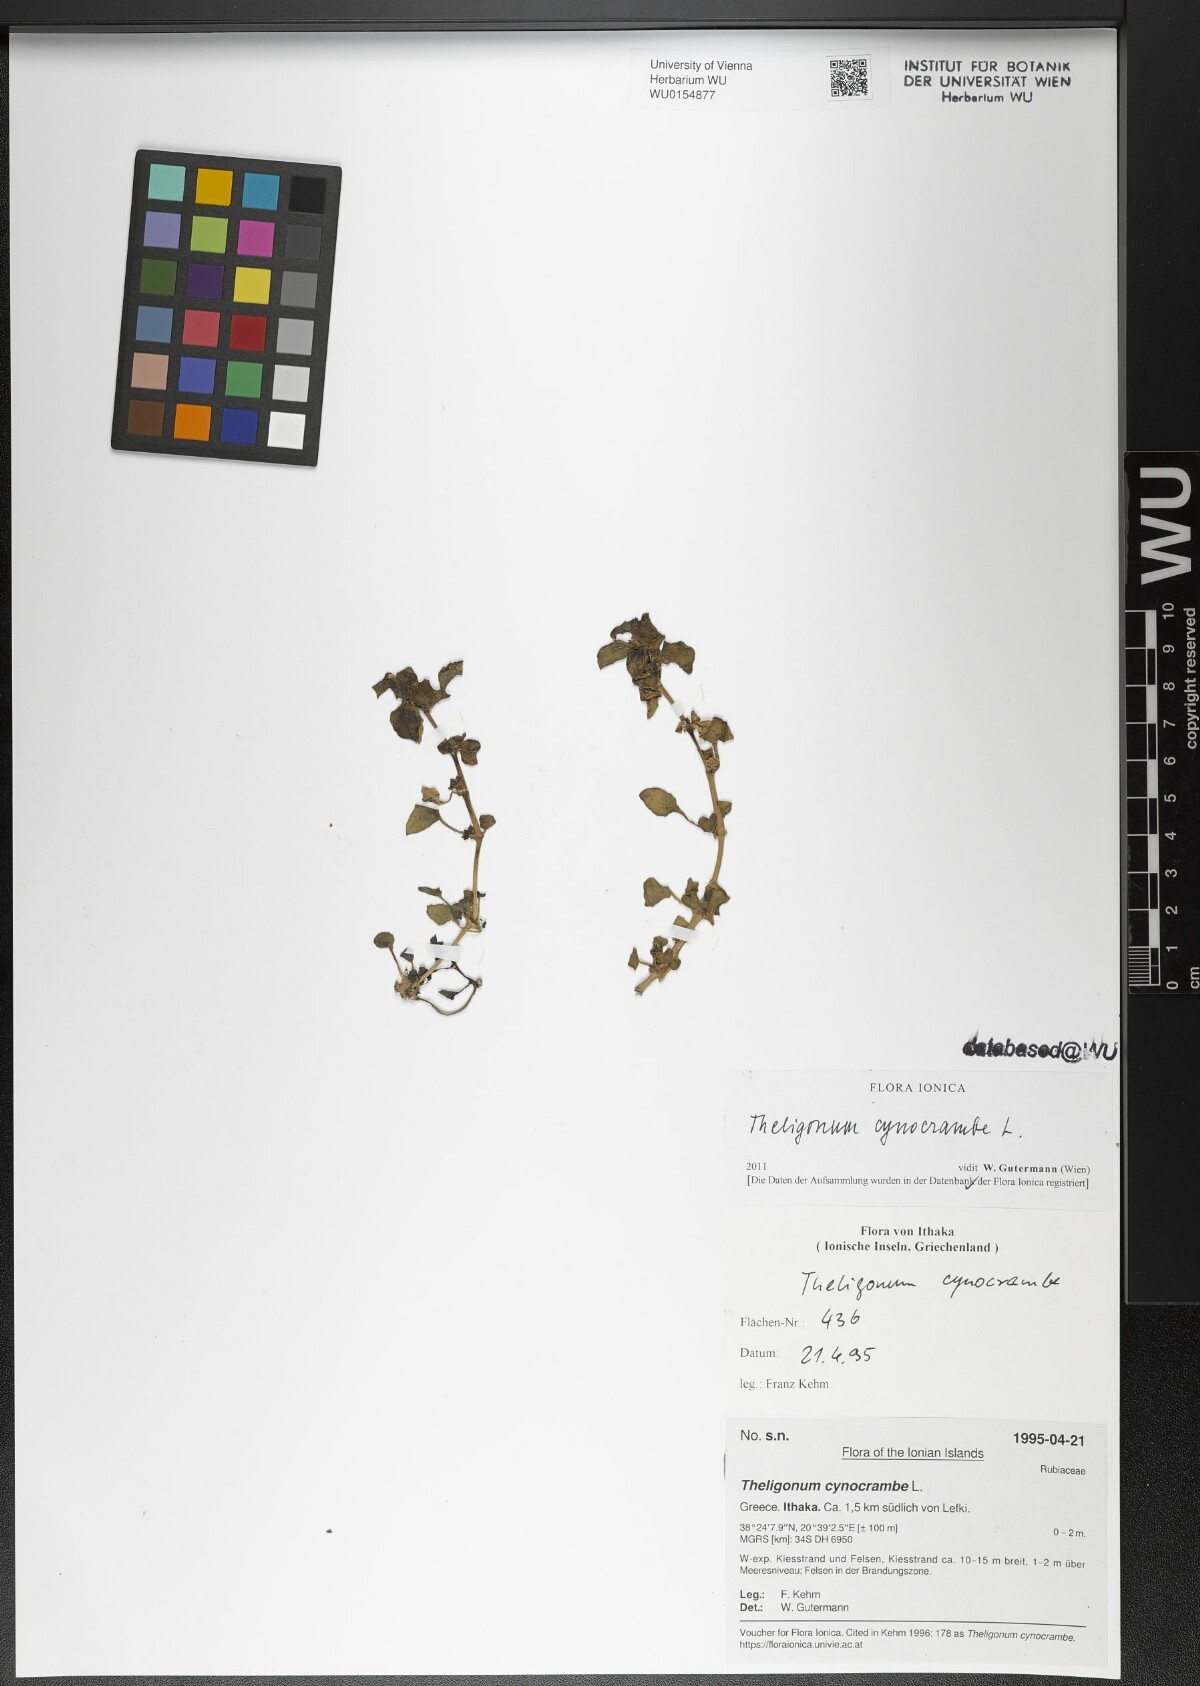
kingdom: Plantae
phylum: Tracheophyta
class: Magnoliopsida
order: Gentianales
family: Rubiaceae
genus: Theligonum
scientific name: Theligonum cynocrambe
